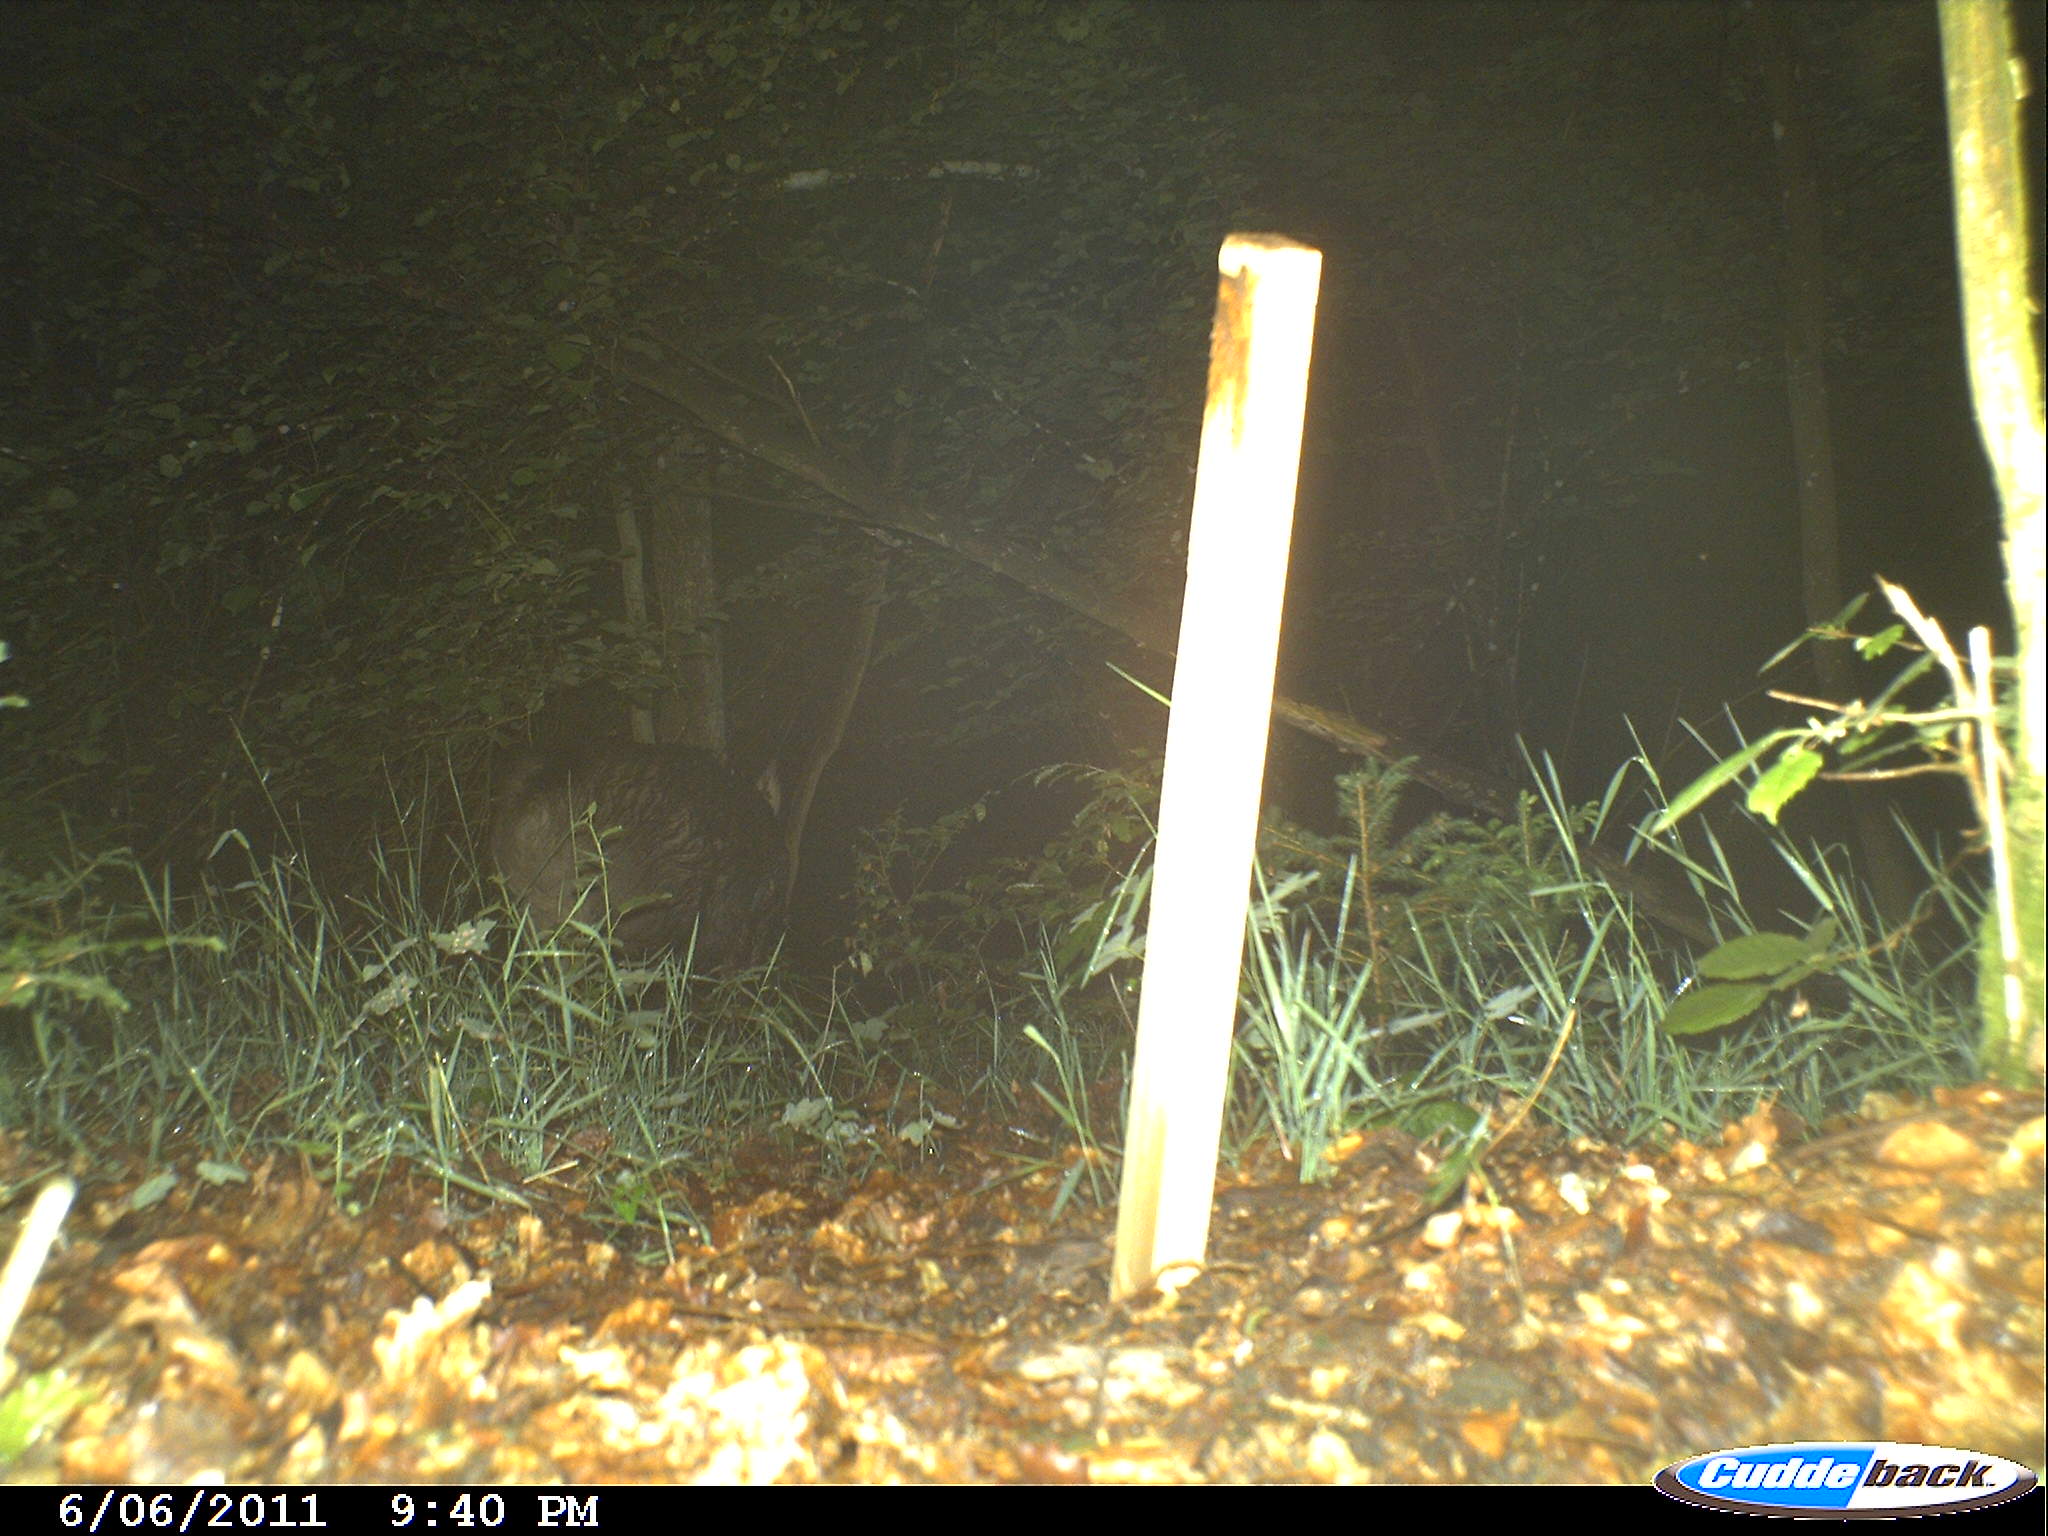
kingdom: Animalia
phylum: Chordata
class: Mammalia
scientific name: Mammalia
